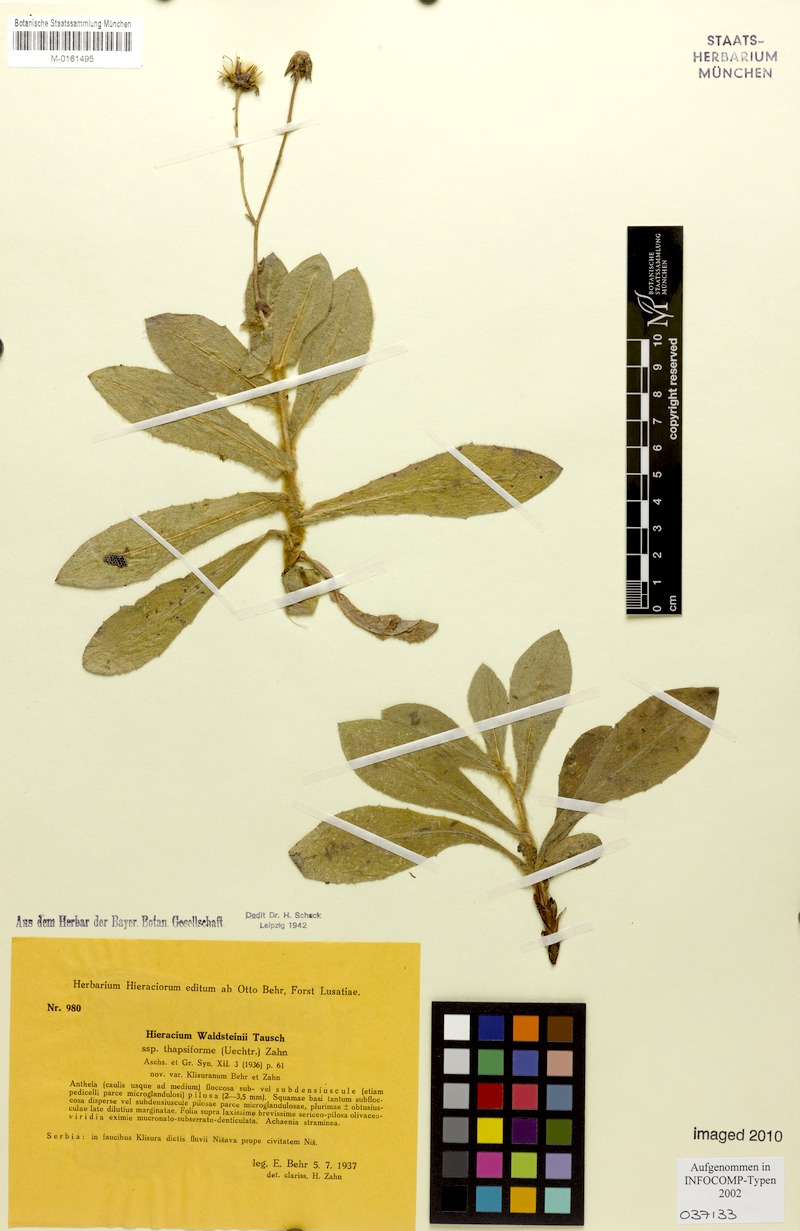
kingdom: Plantae
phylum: Tracheophyta
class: Magnoliopsida
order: Asterales
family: Asteraceae
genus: Hieracium
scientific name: Hieracium waldsteinii
